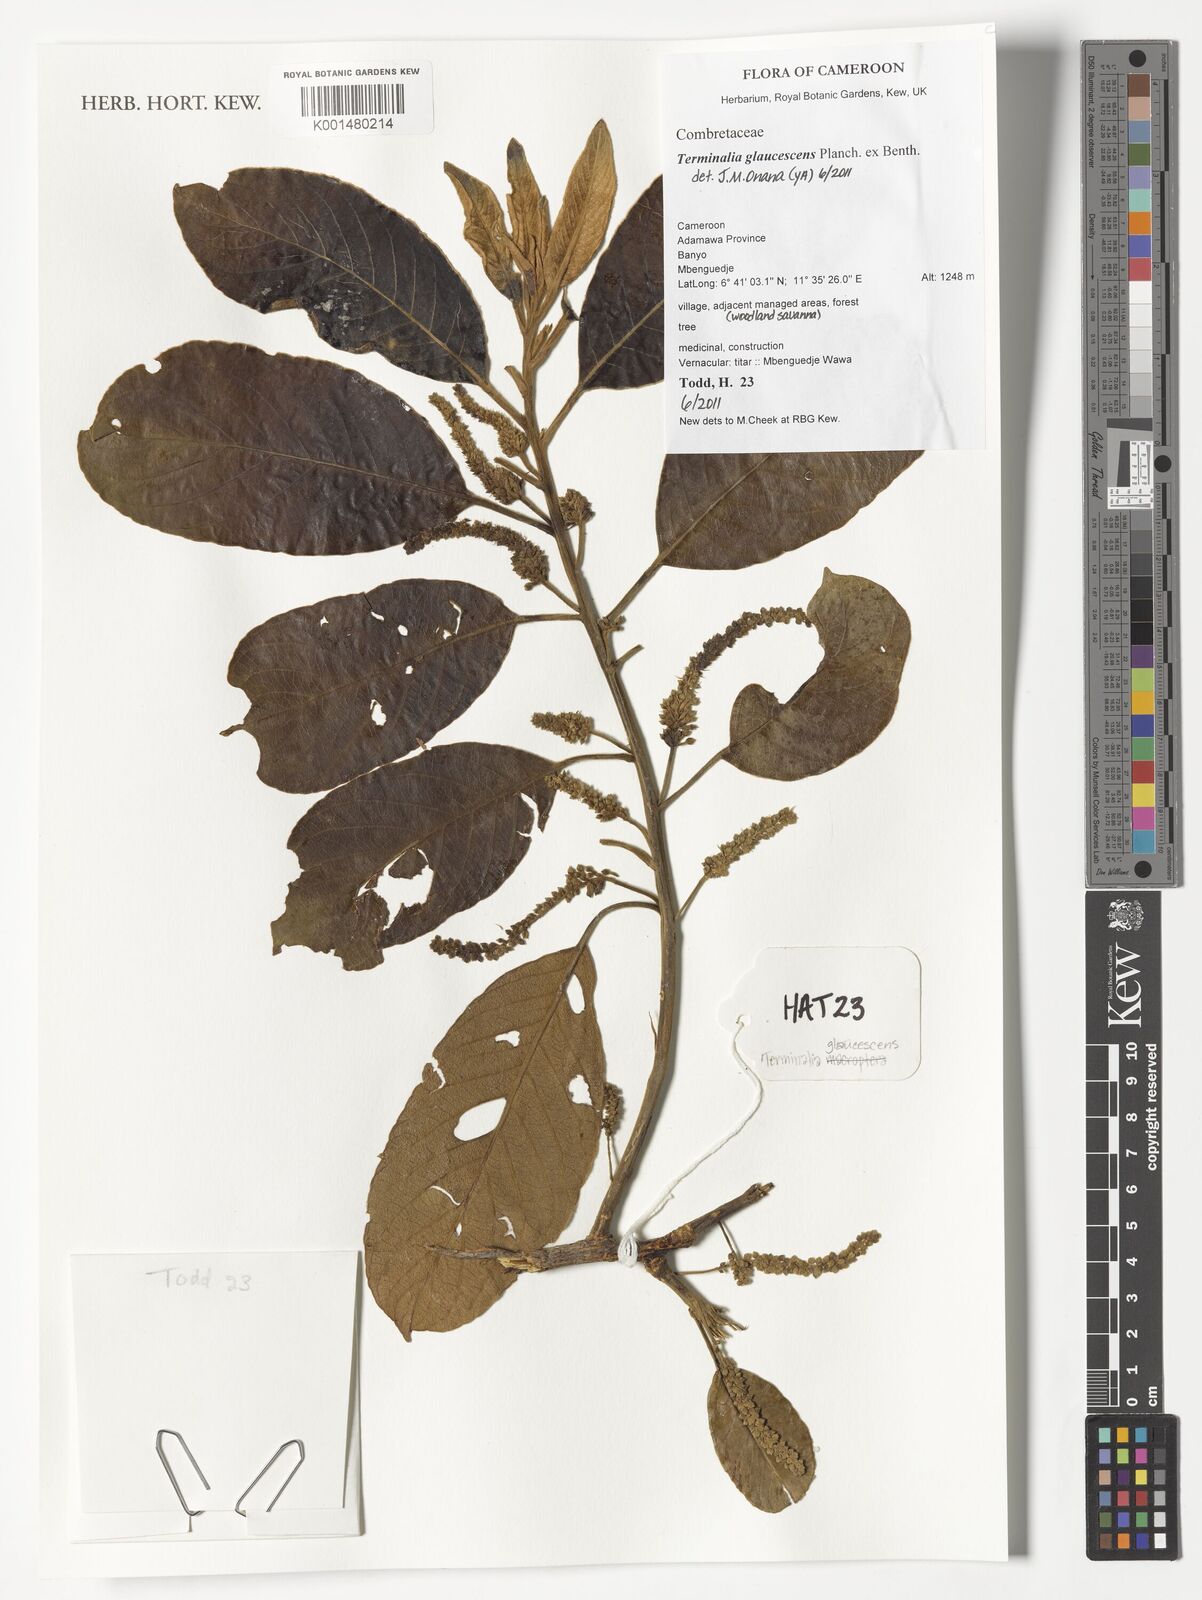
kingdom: Plantae
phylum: Tracheophyta
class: Magnoliopsida
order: Myrtales
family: Combretaceae
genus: Terminalia
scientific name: Terminalia schimperiana
